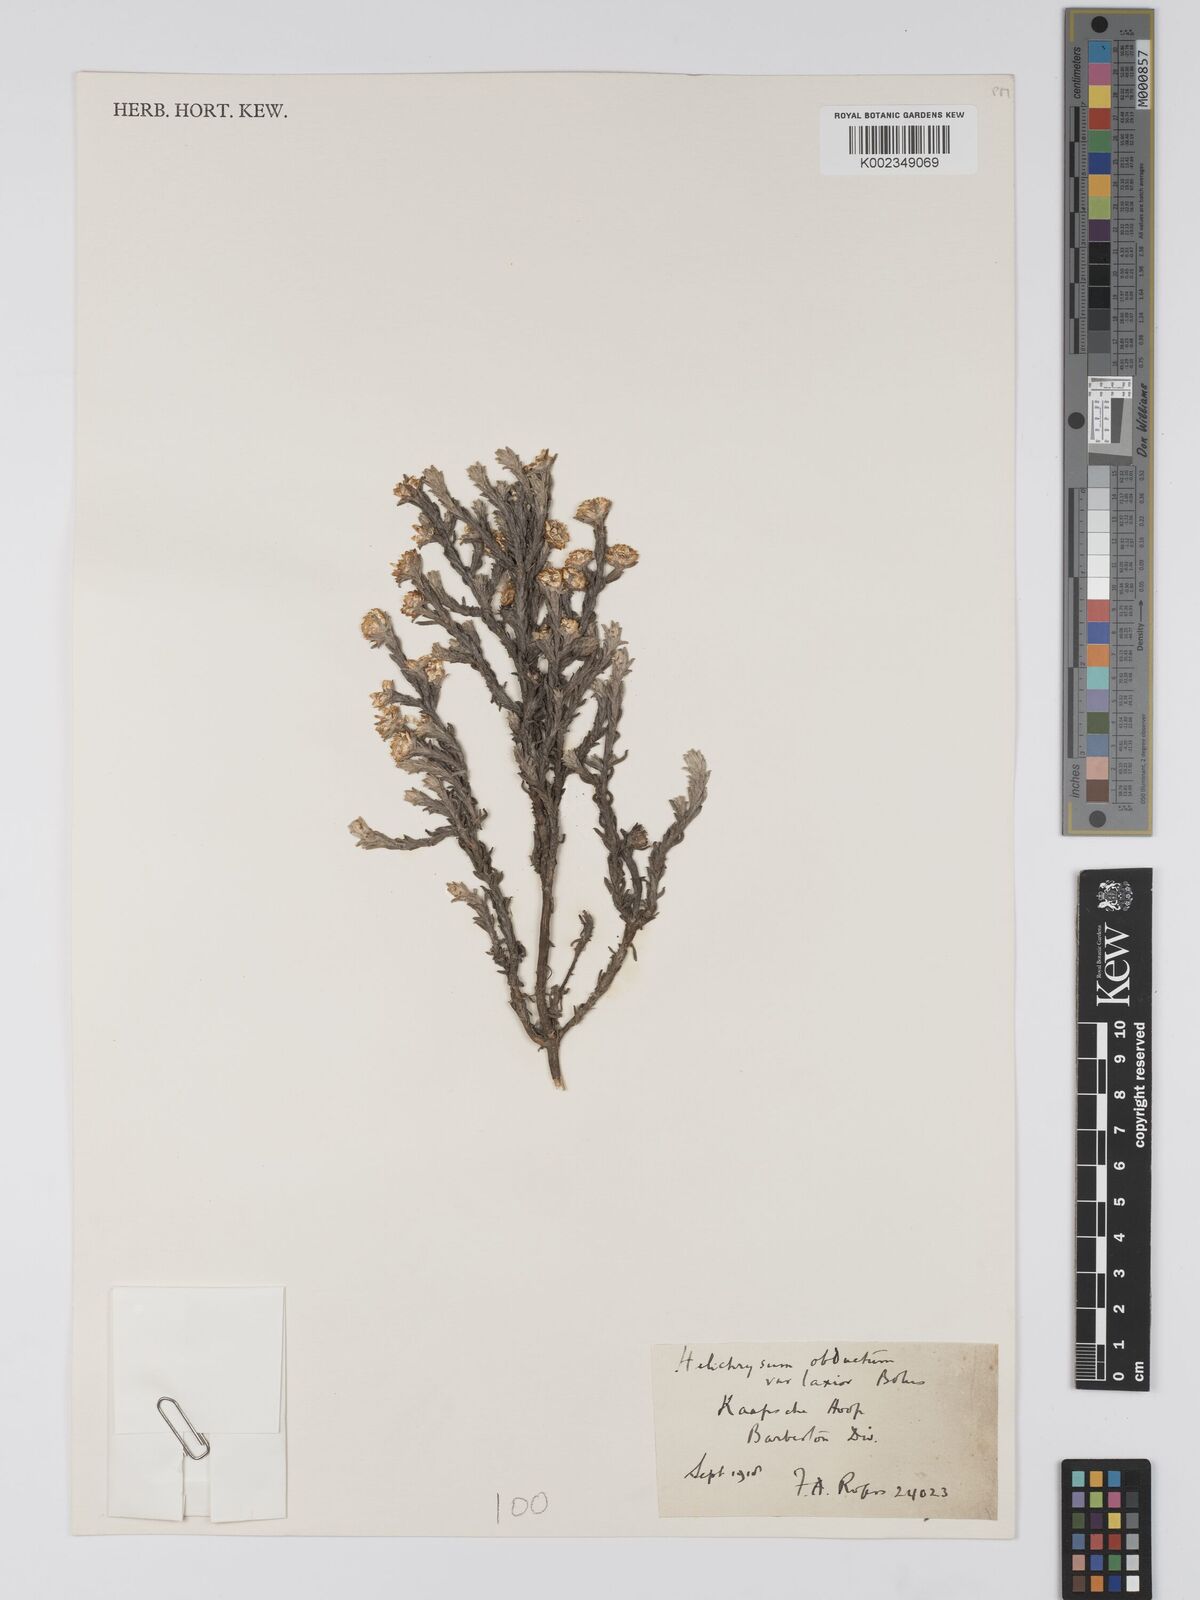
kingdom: Plantae
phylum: Tracheophyta
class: Magnoliopsida
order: Asterales
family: Asteraceae
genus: Helichrysum
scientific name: Helichrysum obductum
